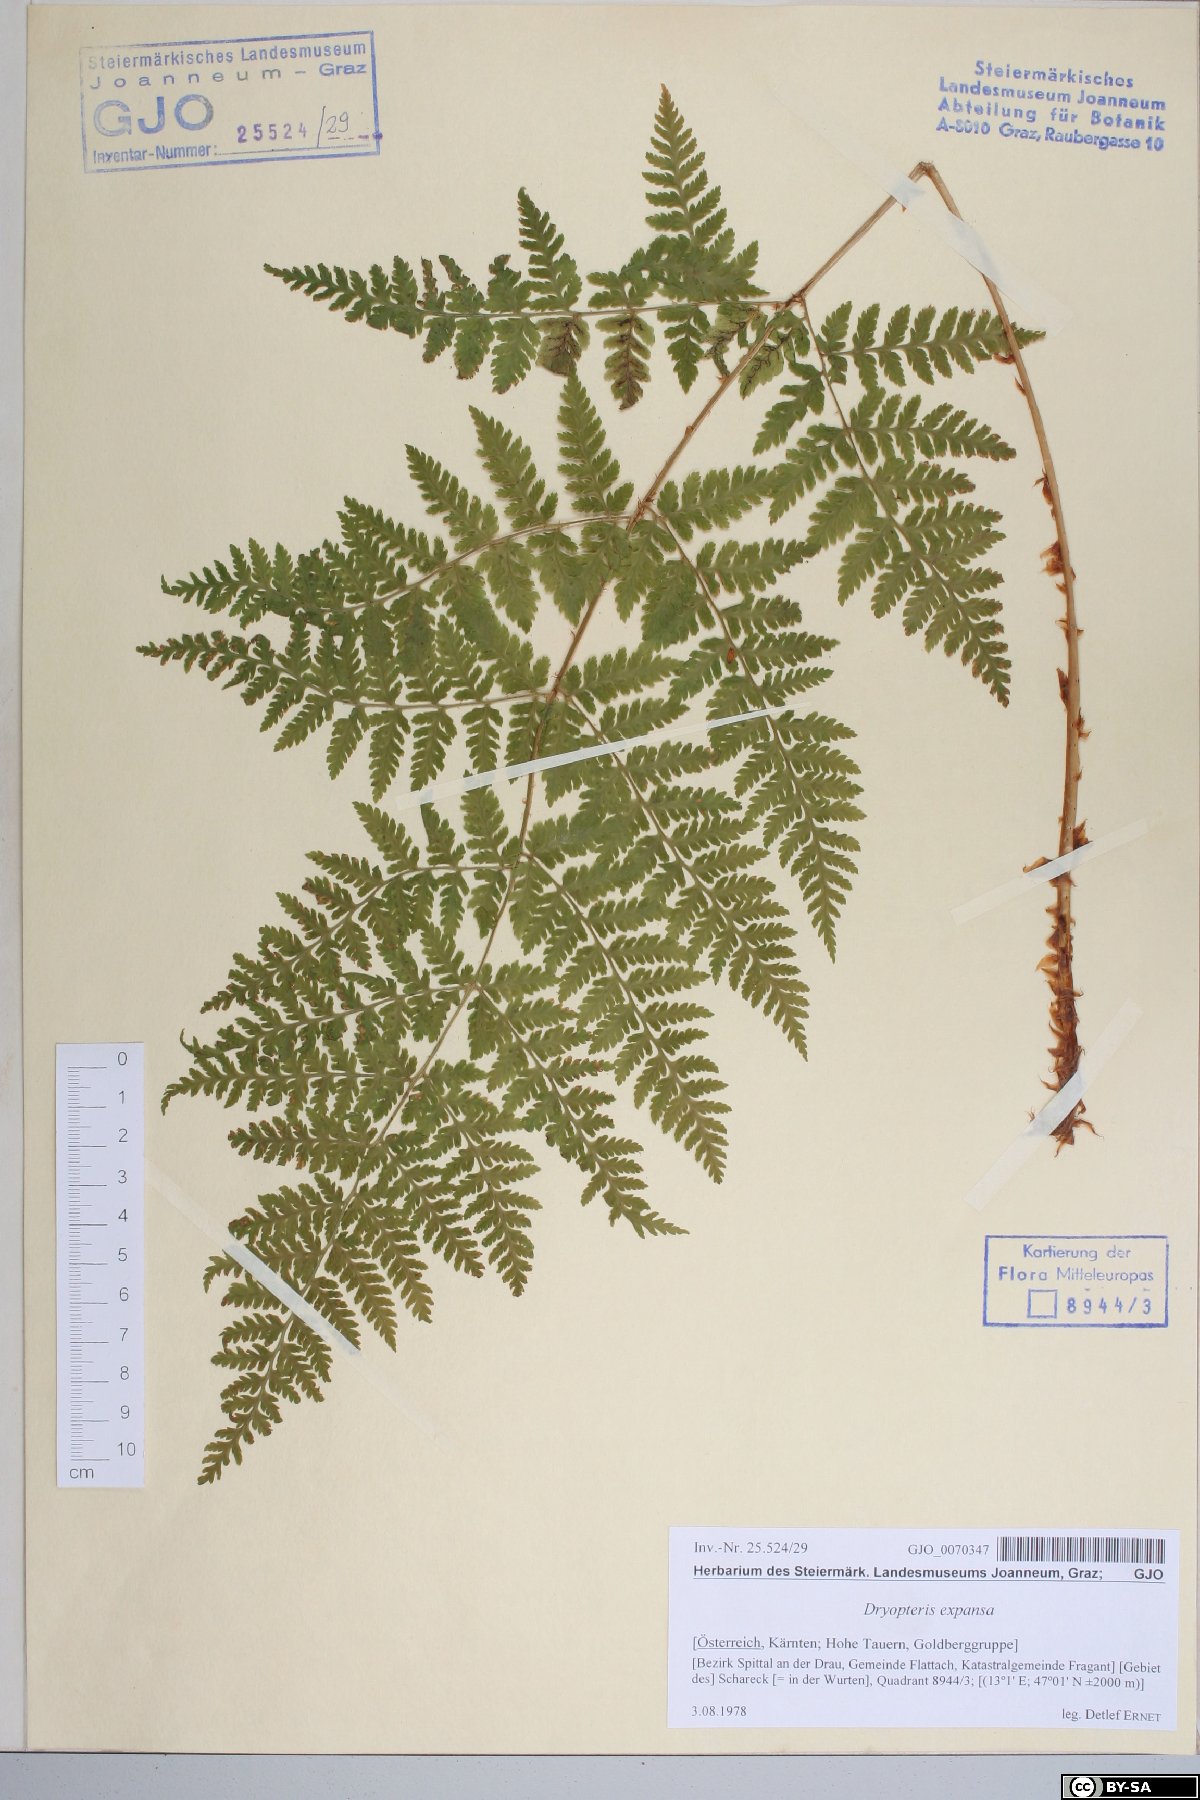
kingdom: Plantae
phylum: Tracheophyta
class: Polypodiopsida
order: Polypodiales
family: Dryopteridaceae
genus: Dryopteris
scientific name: Dryopteris expansa
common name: Northern buckler fern
